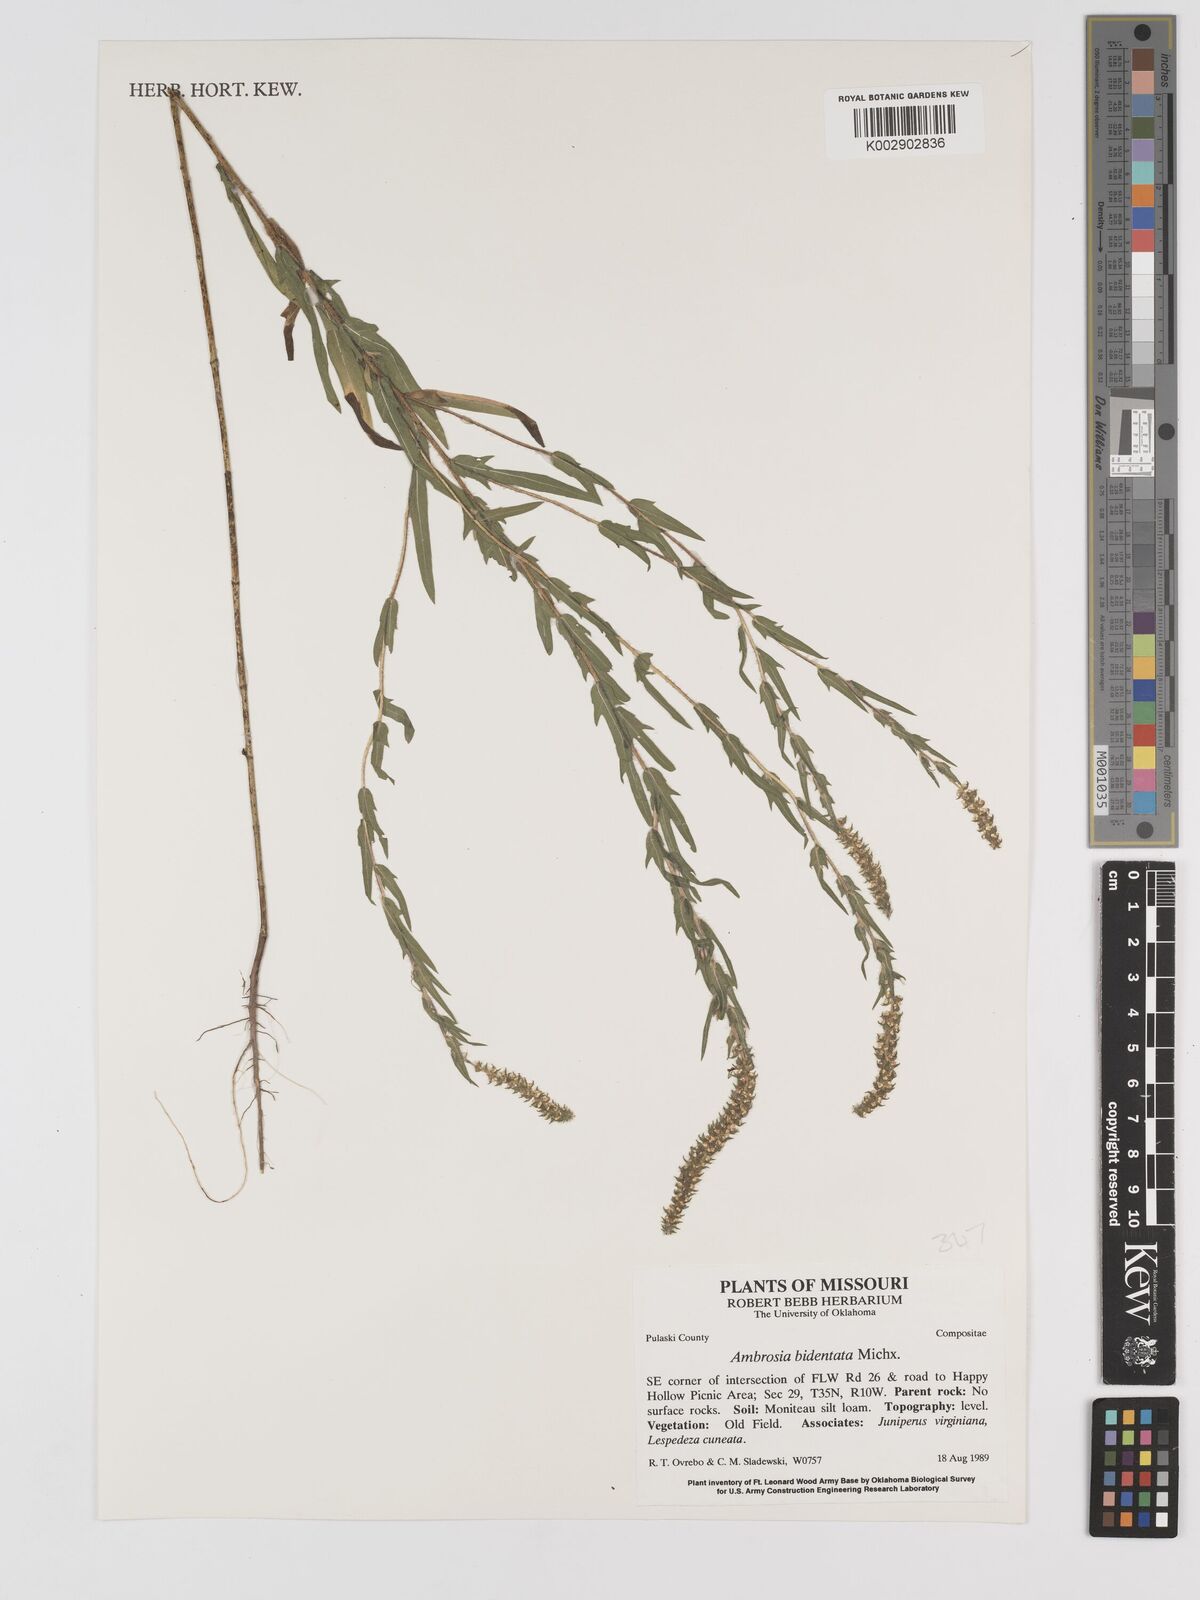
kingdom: Plantae
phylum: Tracheophyta
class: Magnoliopsida
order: Asterales
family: Asteraceae
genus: Ambrosia
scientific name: Ambrosia bidentata
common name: Southern ragweed
